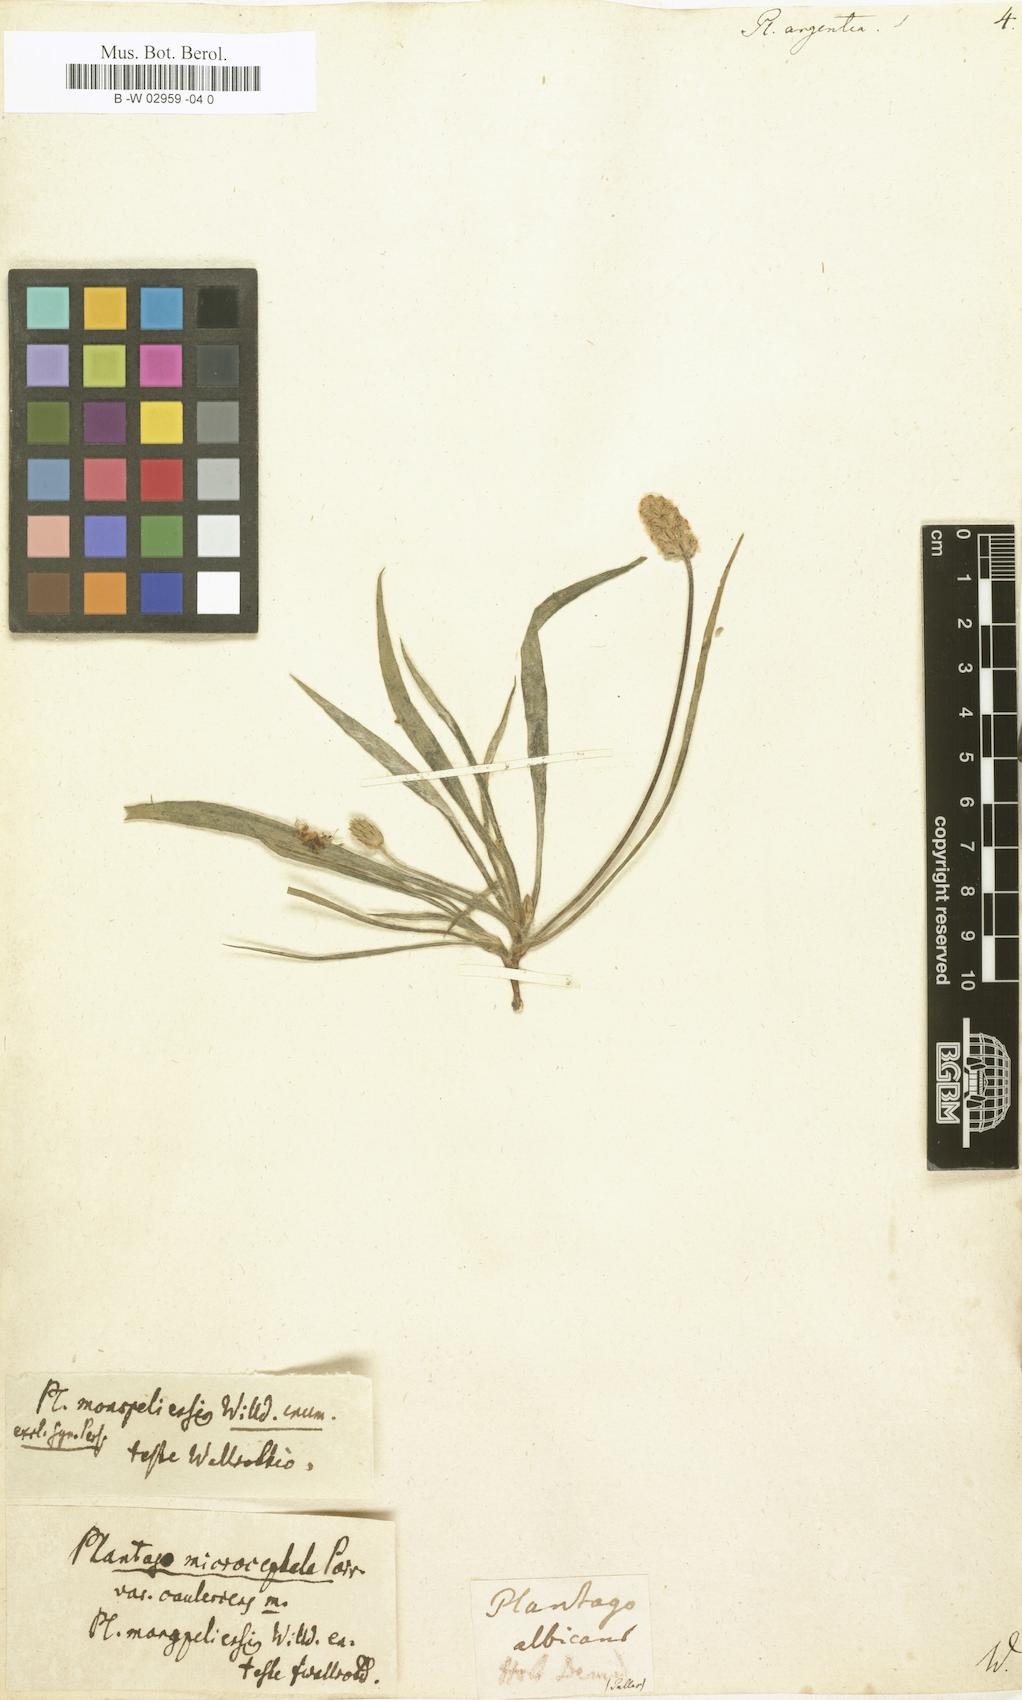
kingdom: Plantae
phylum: Tracheophyta
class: Magnoliopsida
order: Lamiales
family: Plantaginaceae
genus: Plantago
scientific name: Plantago argentea
